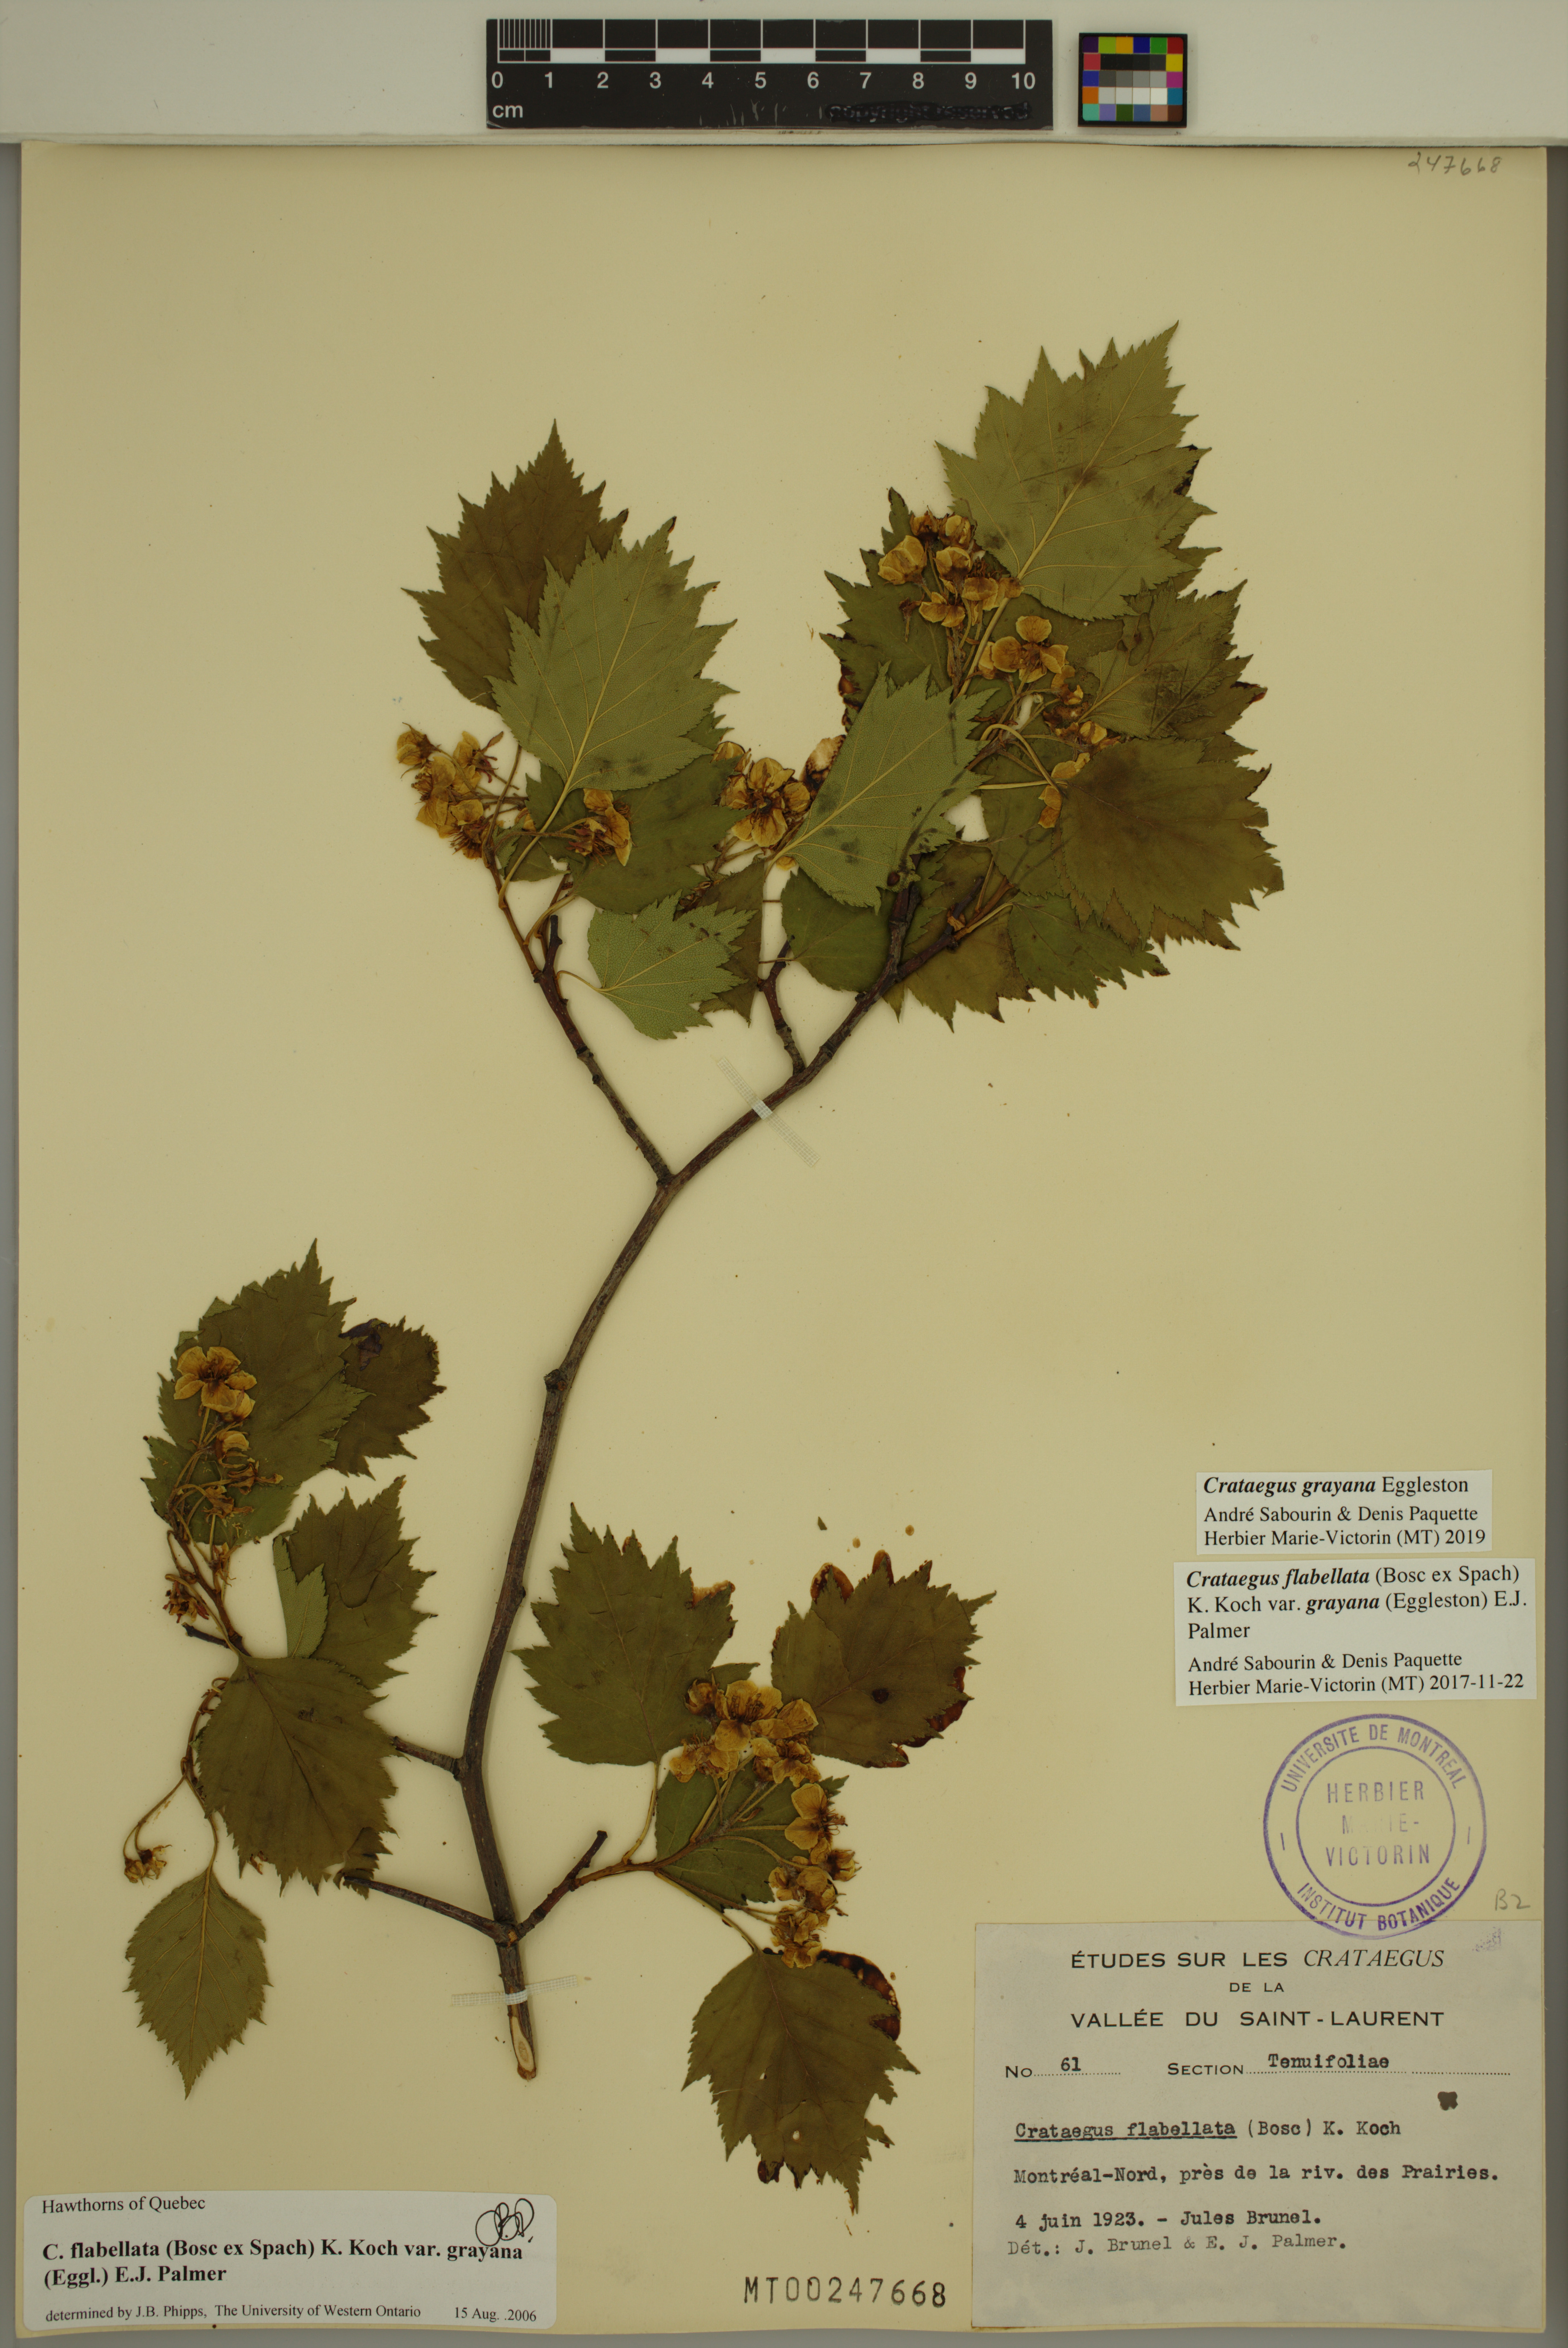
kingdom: Plantae
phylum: Tracheophyta
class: Magnoliopsida
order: Rosales
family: Rosaceae
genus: Crataegus
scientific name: Crataegus schuettei
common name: Schuette's hawthorn
